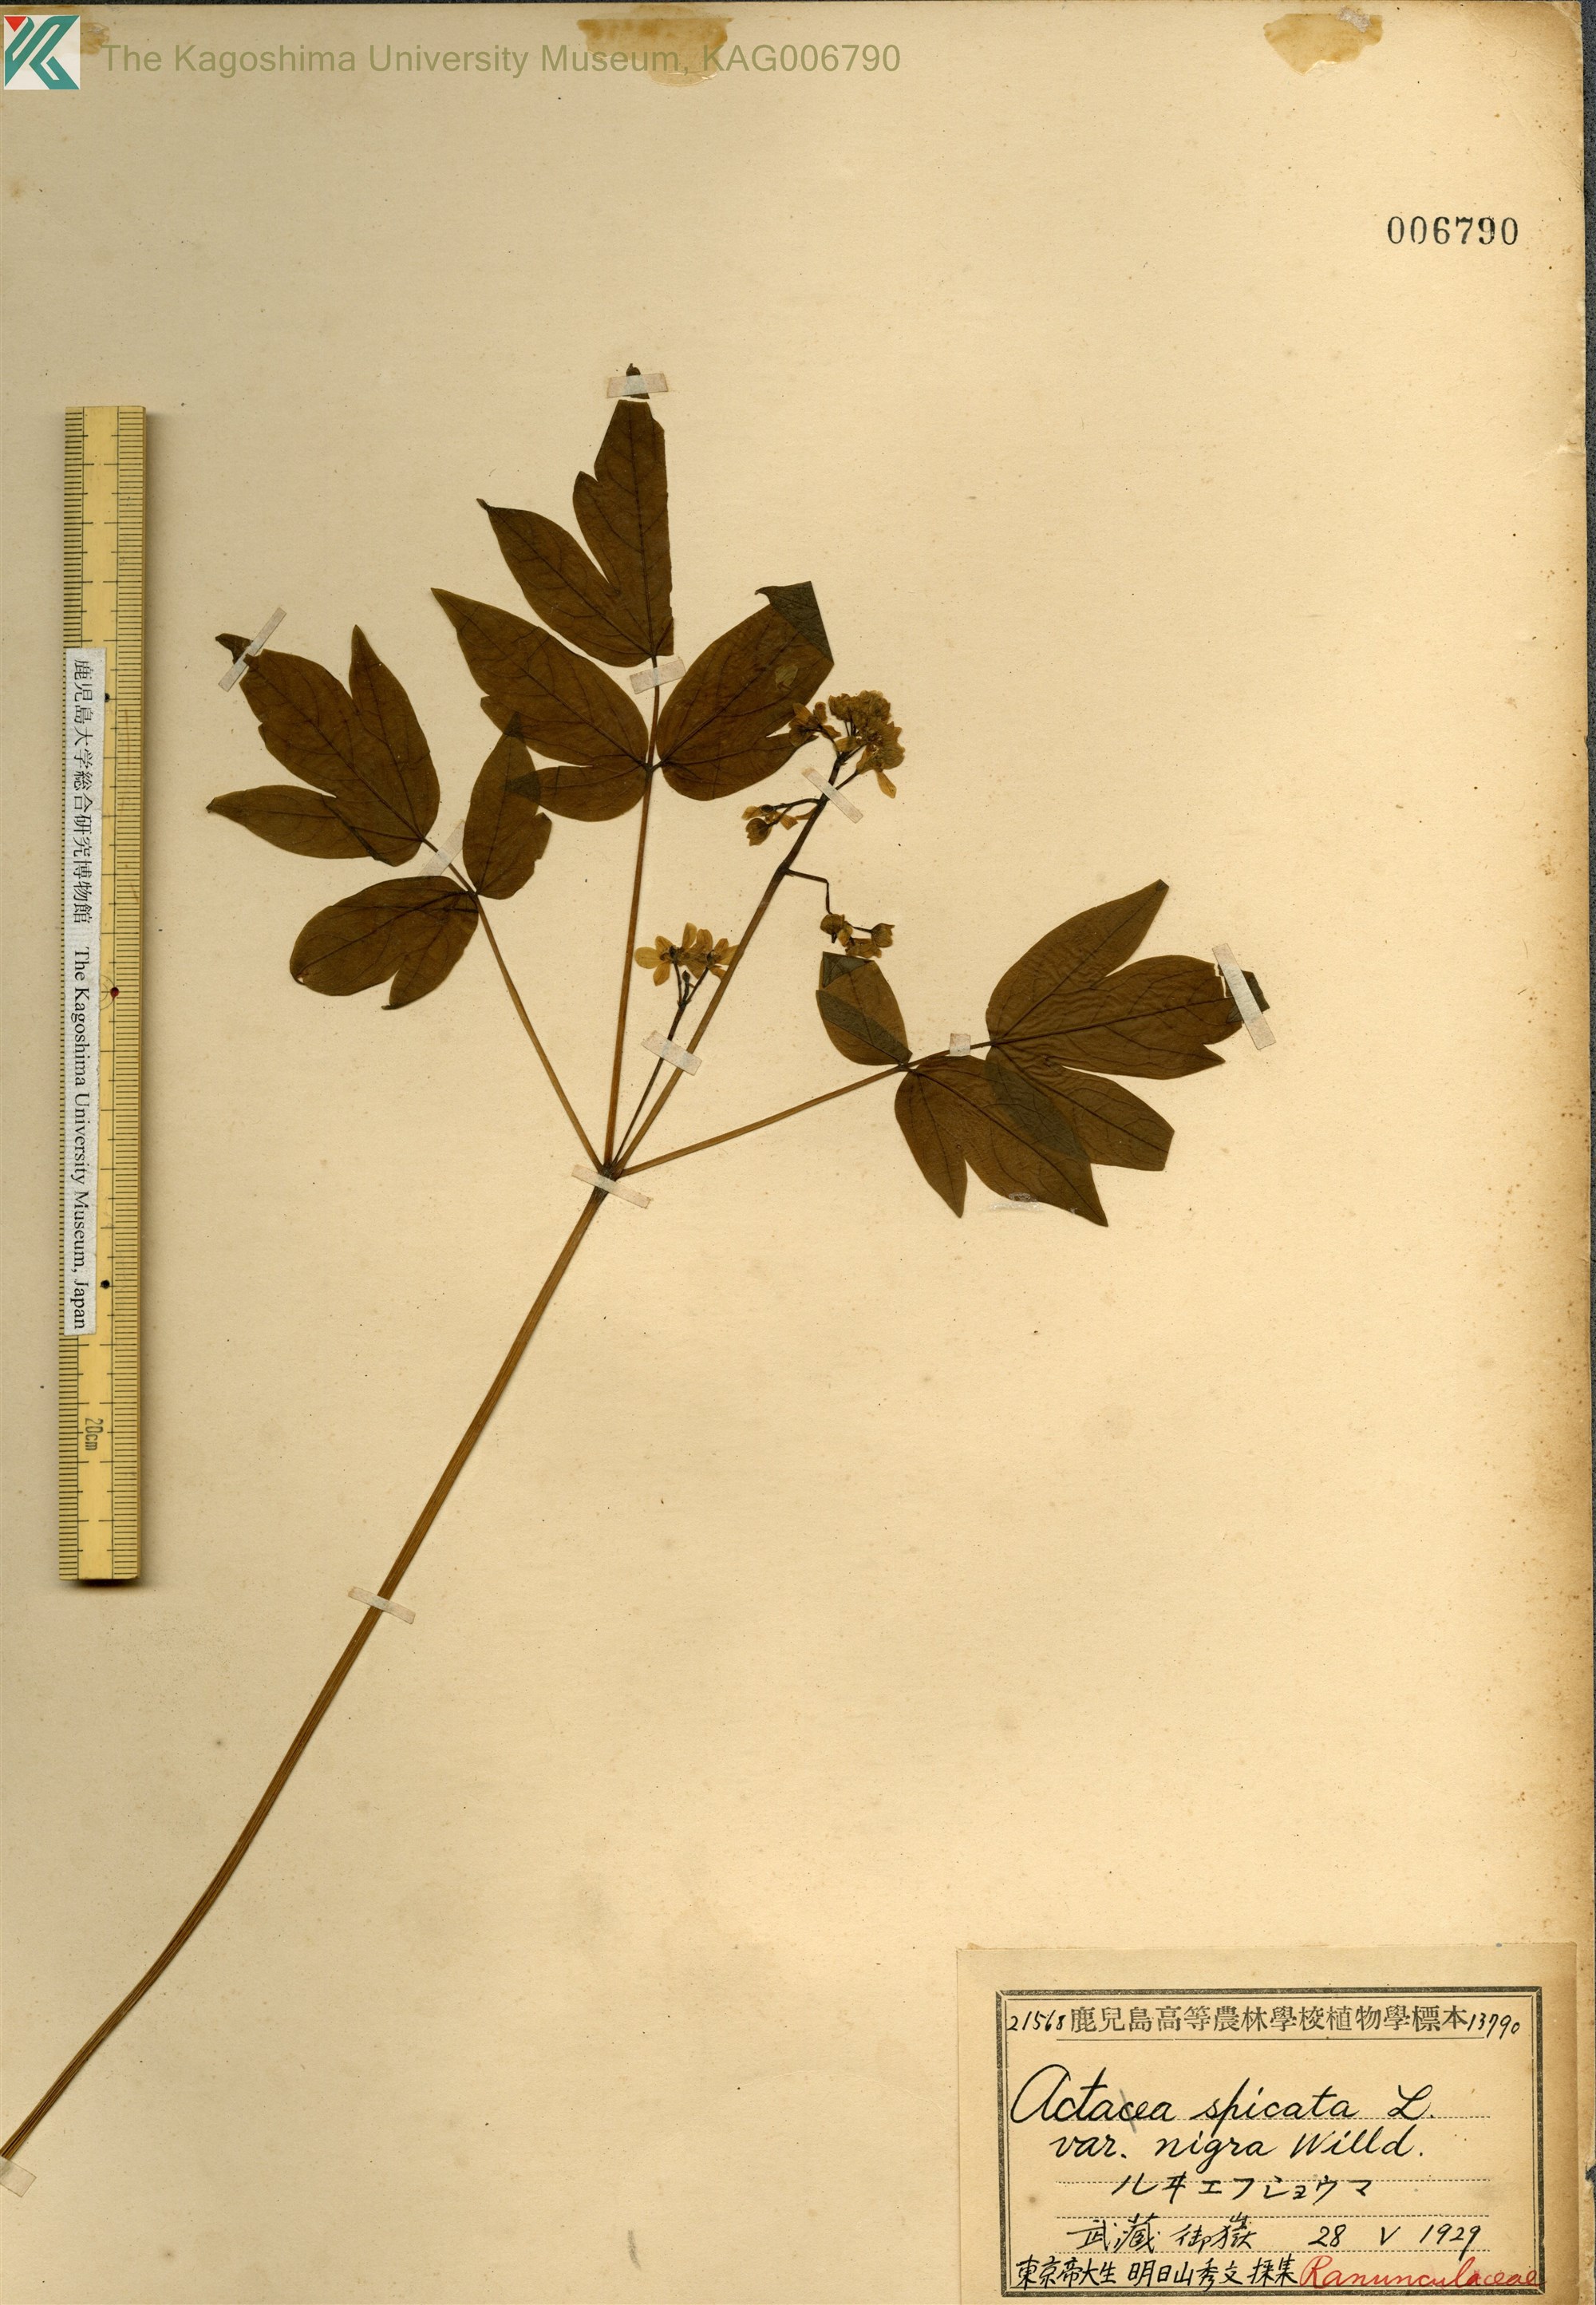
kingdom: Plantae
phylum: Tracheophyta
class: Magnoliopsida
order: Ranunculales
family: Berberidaceae
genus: Caulophyllum
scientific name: Caulophyllum robustum
